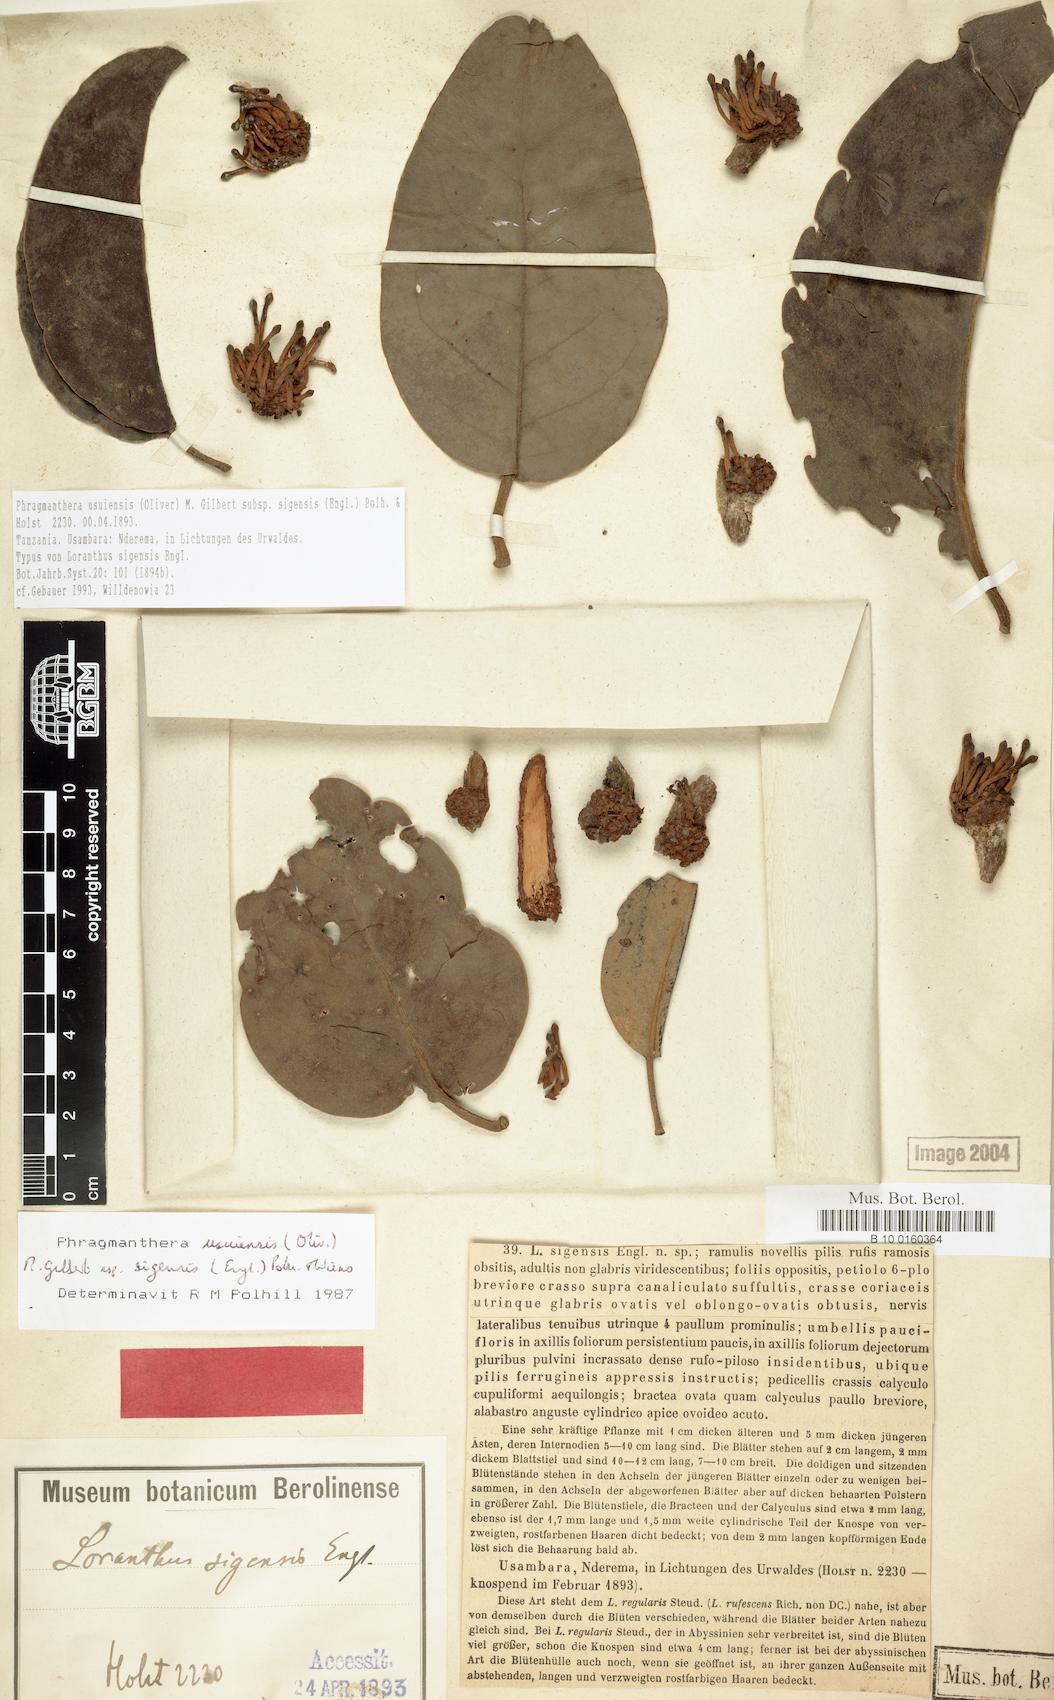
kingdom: Plantae
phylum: Tracheophyta
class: Magnoliopsida
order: Santalales
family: Loranthaceae
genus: Phragmanthera
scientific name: Phragmanthera usuiensis
